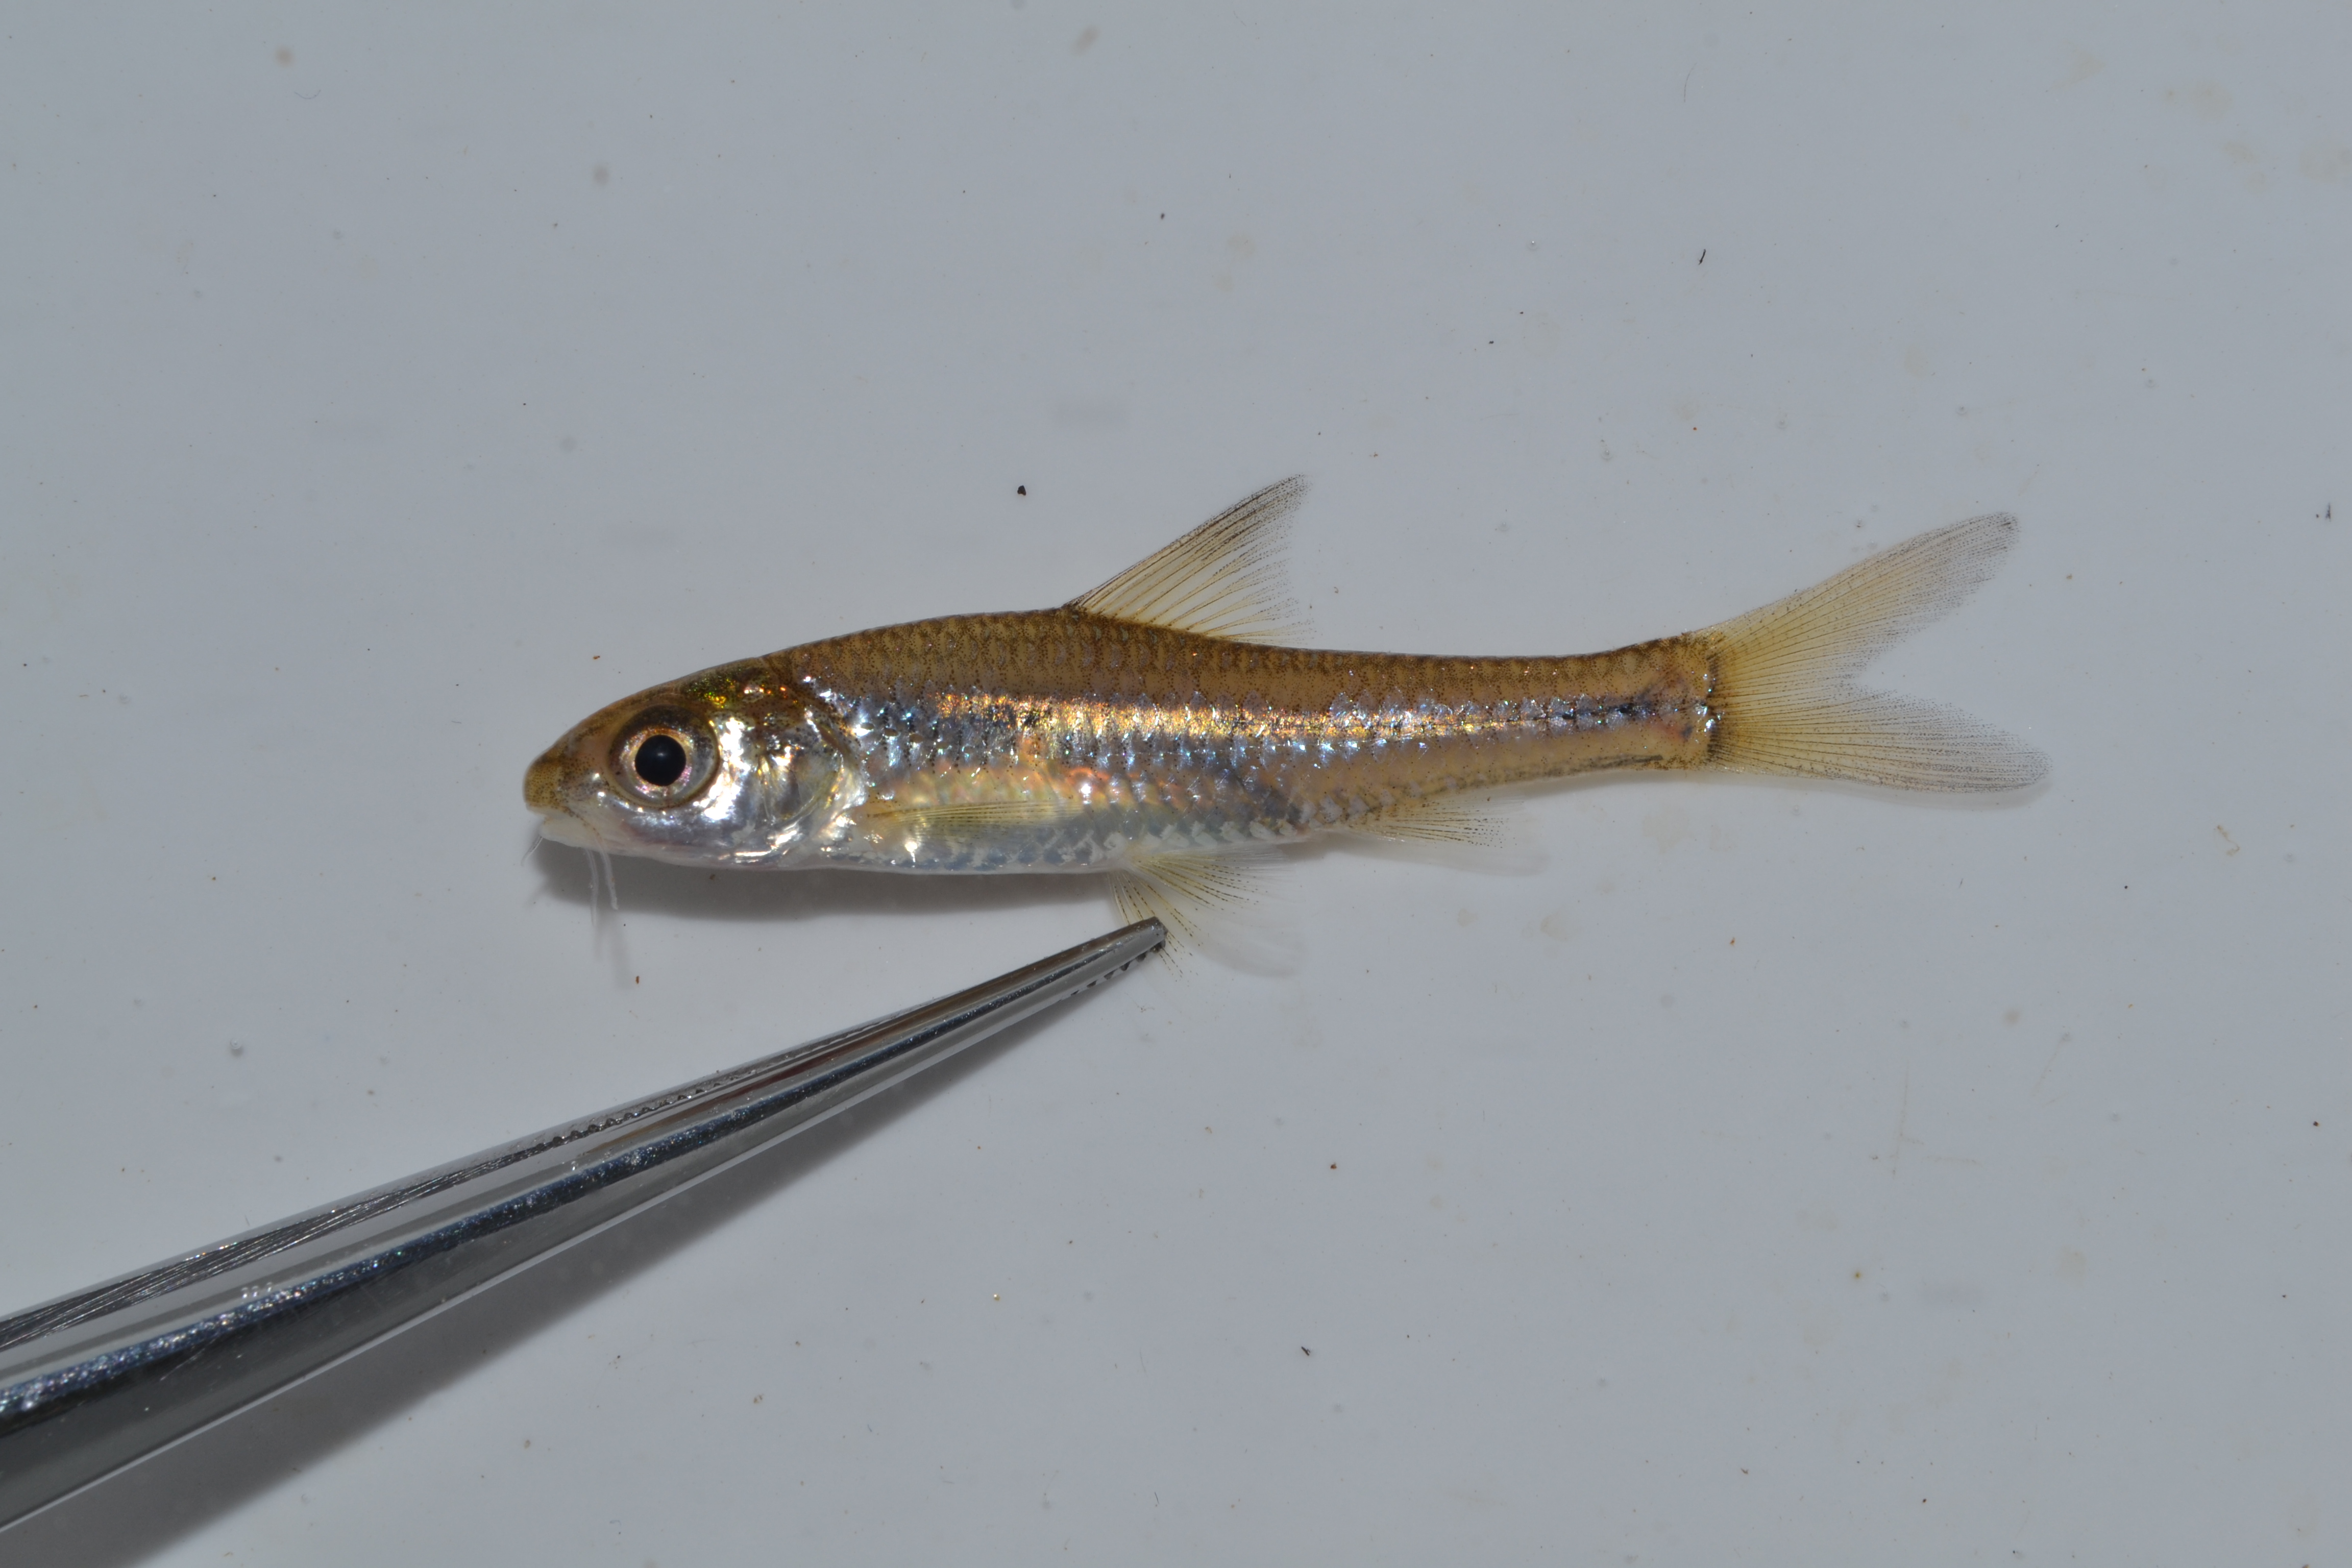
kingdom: Animalia
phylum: Chordata
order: Perciformes
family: Cichlidae
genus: Tilapia
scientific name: Tilapia sparrmanii
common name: Banded tilapia
